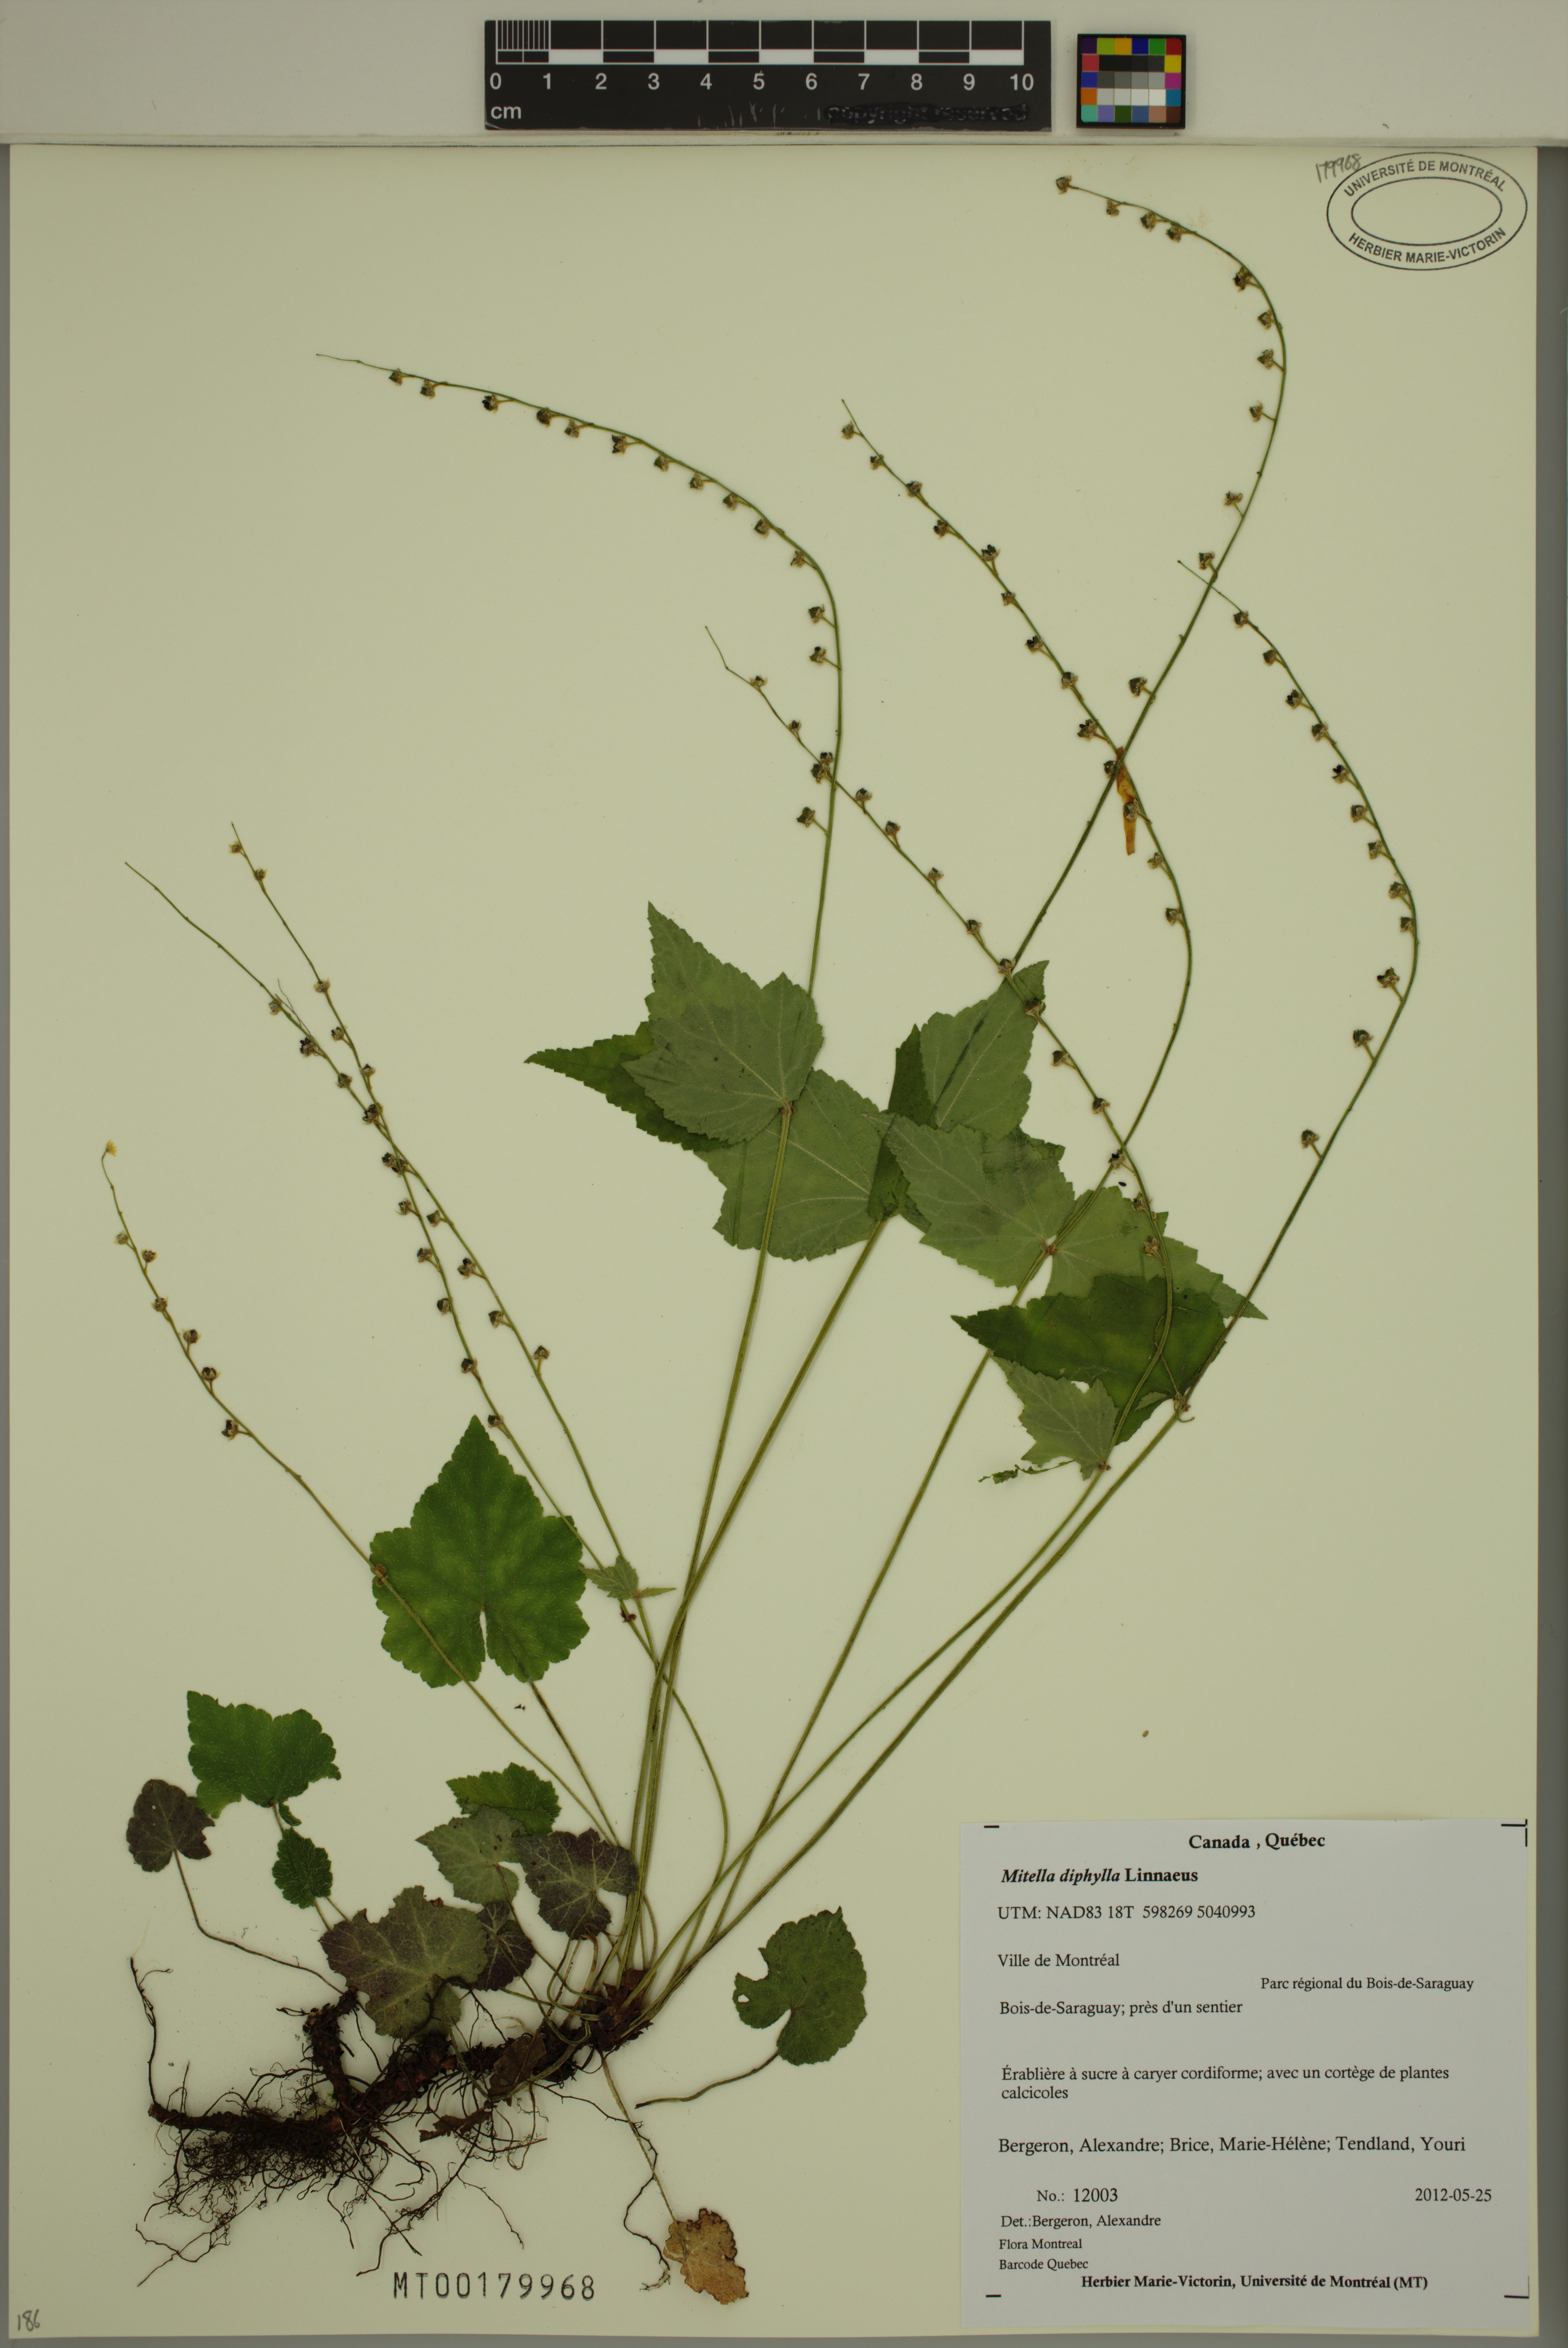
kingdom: Plantae
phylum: Tracheophyta
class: Magnoliopsida
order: Saxifragales
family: Saxifragaceae
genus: Mitella
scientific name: Mitella diphylla
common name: Coolwort
